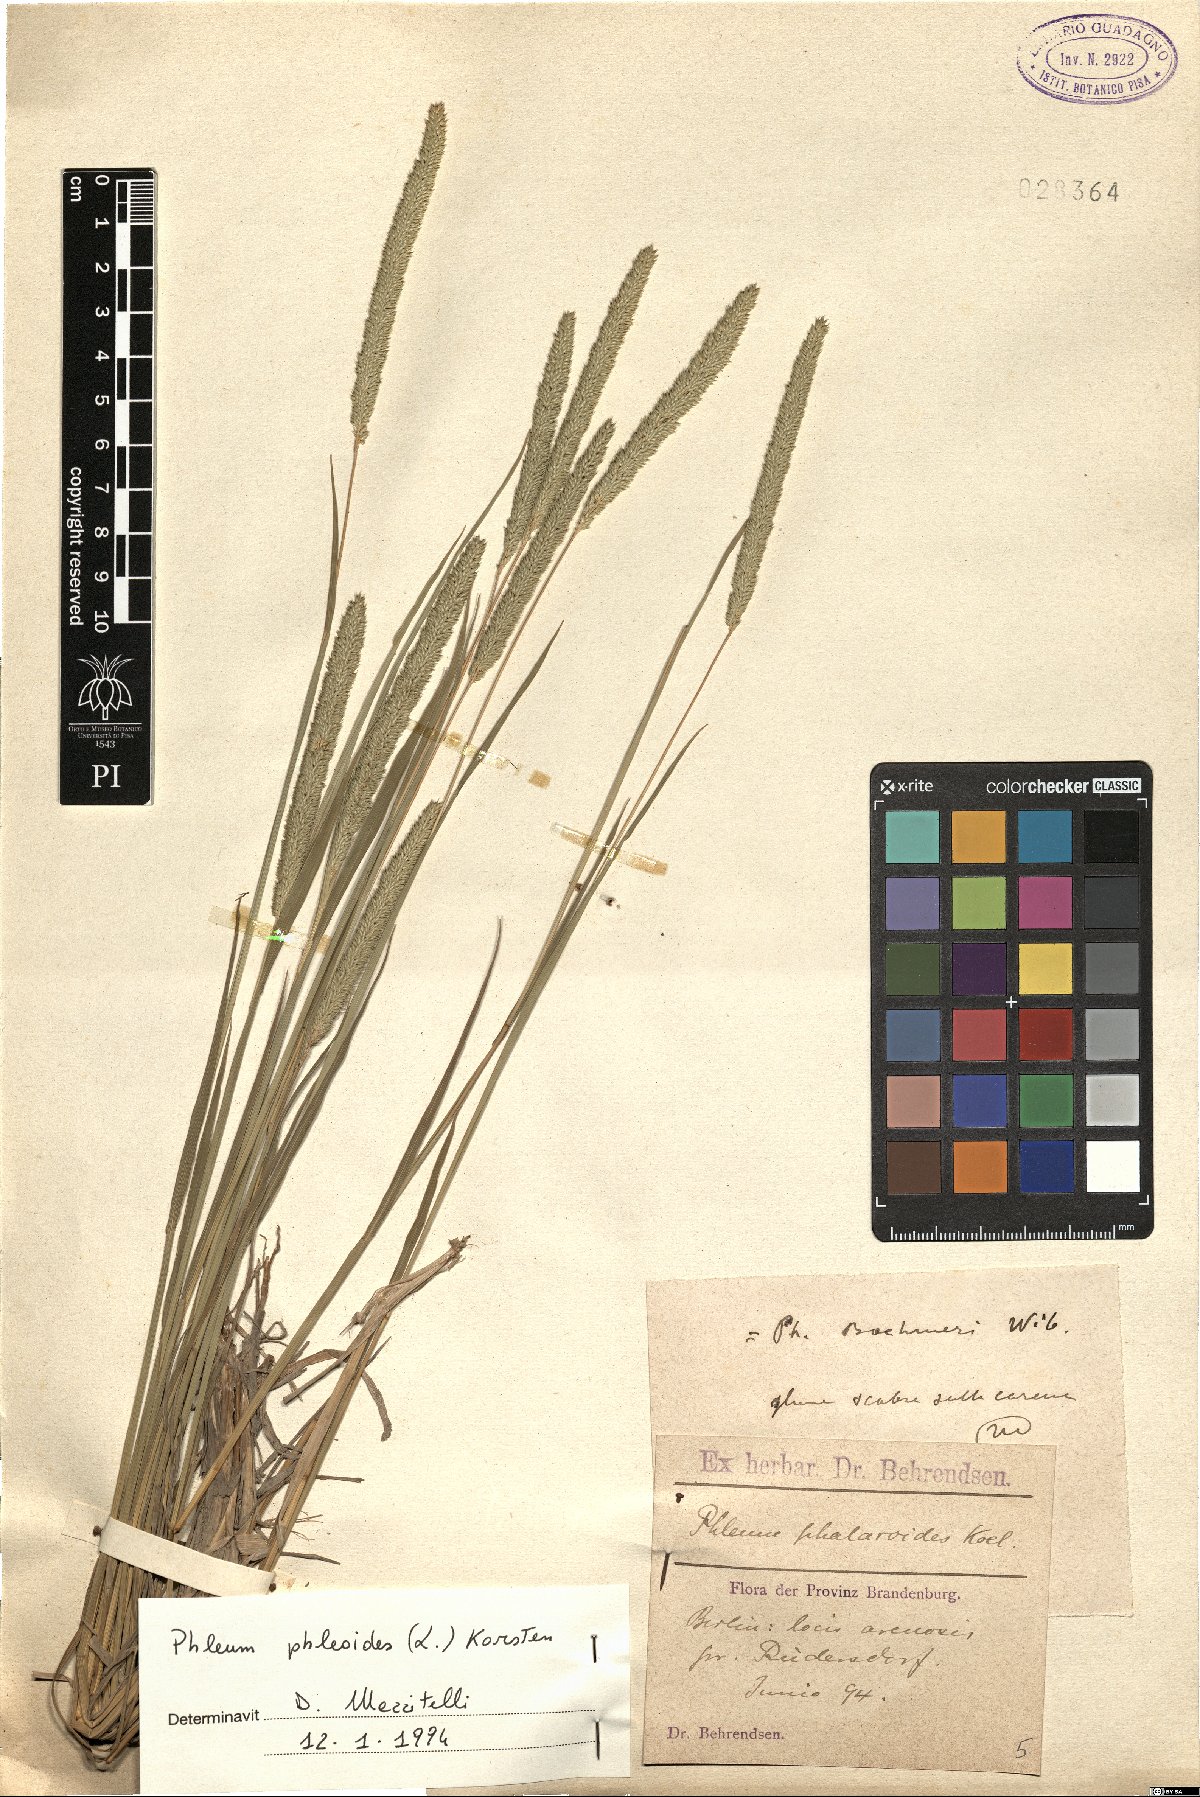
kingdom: Plantae
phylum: Tracheophyta
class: Liliopsida
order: Poales
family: Poaceae
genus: Phleum
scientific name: Phleum phleoides
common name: Purple-stem cat's-tail
